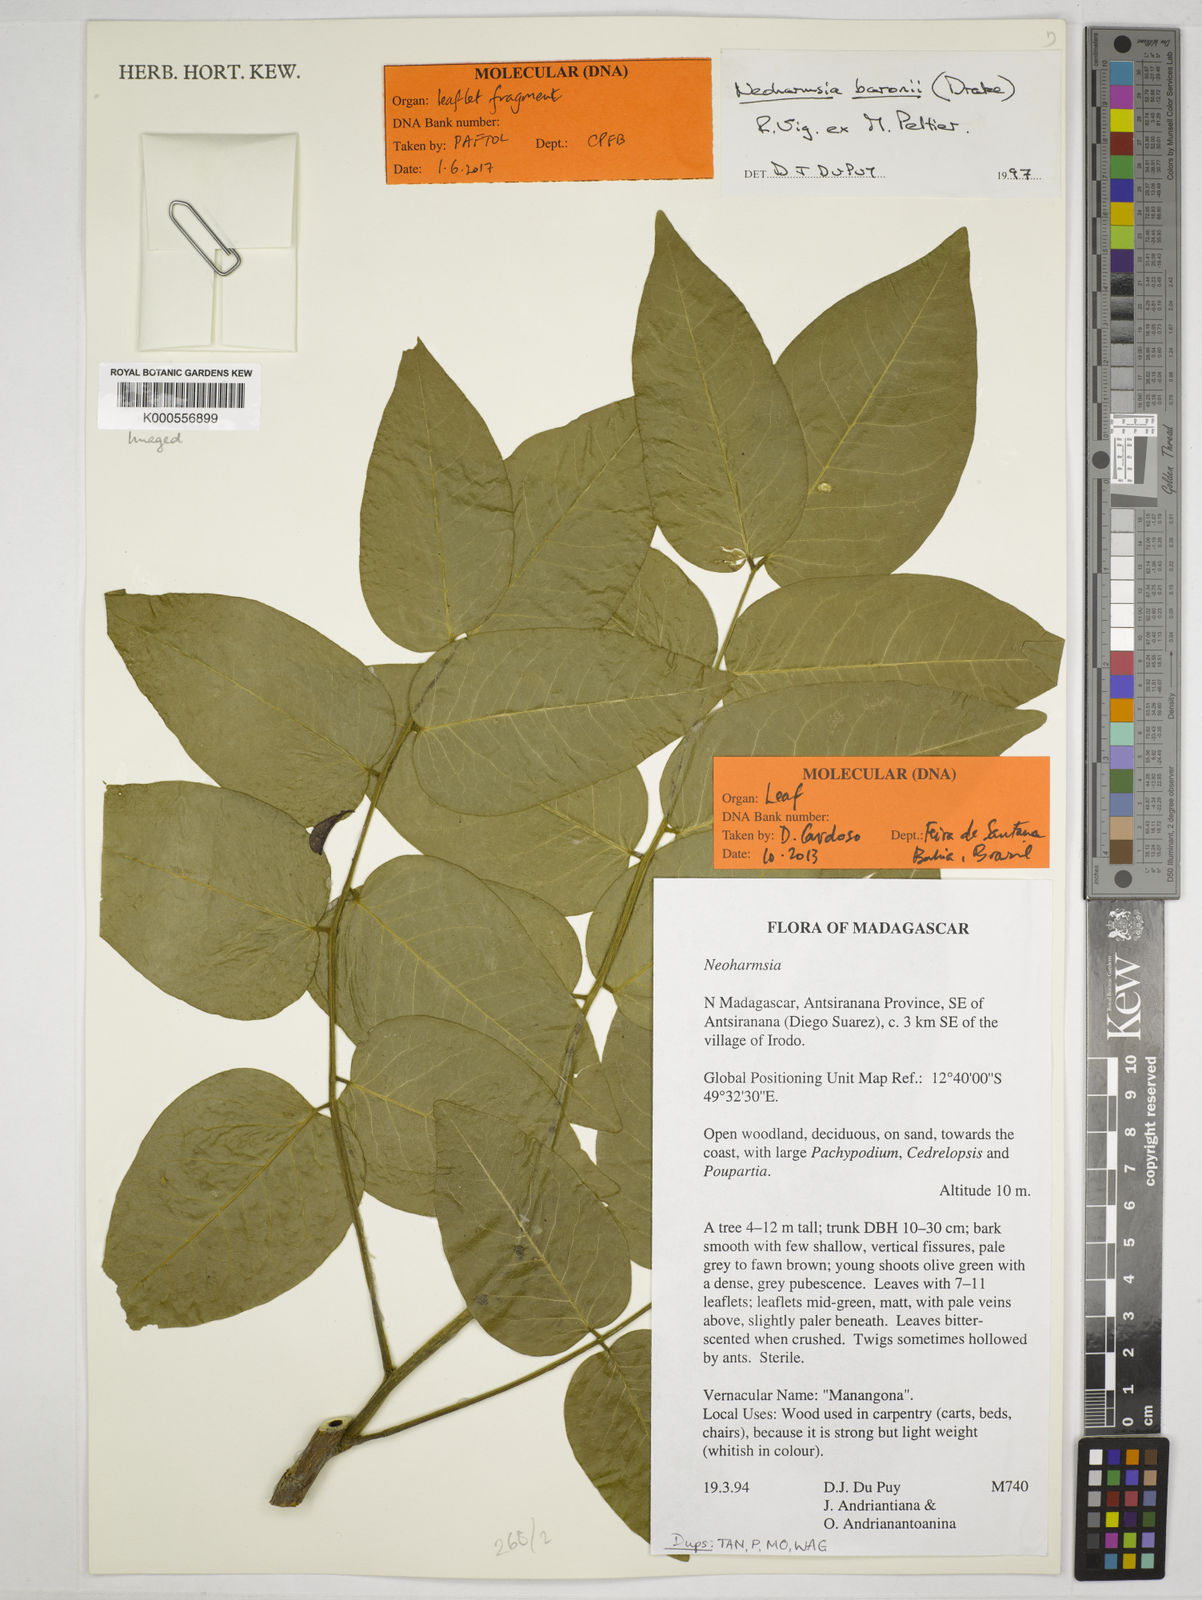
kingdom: Plantae
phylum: Tracheophyta
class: Magnoliopsida
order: Fabales
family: Fabaceae
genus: Neoharmsia
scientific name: Neoharmsia
